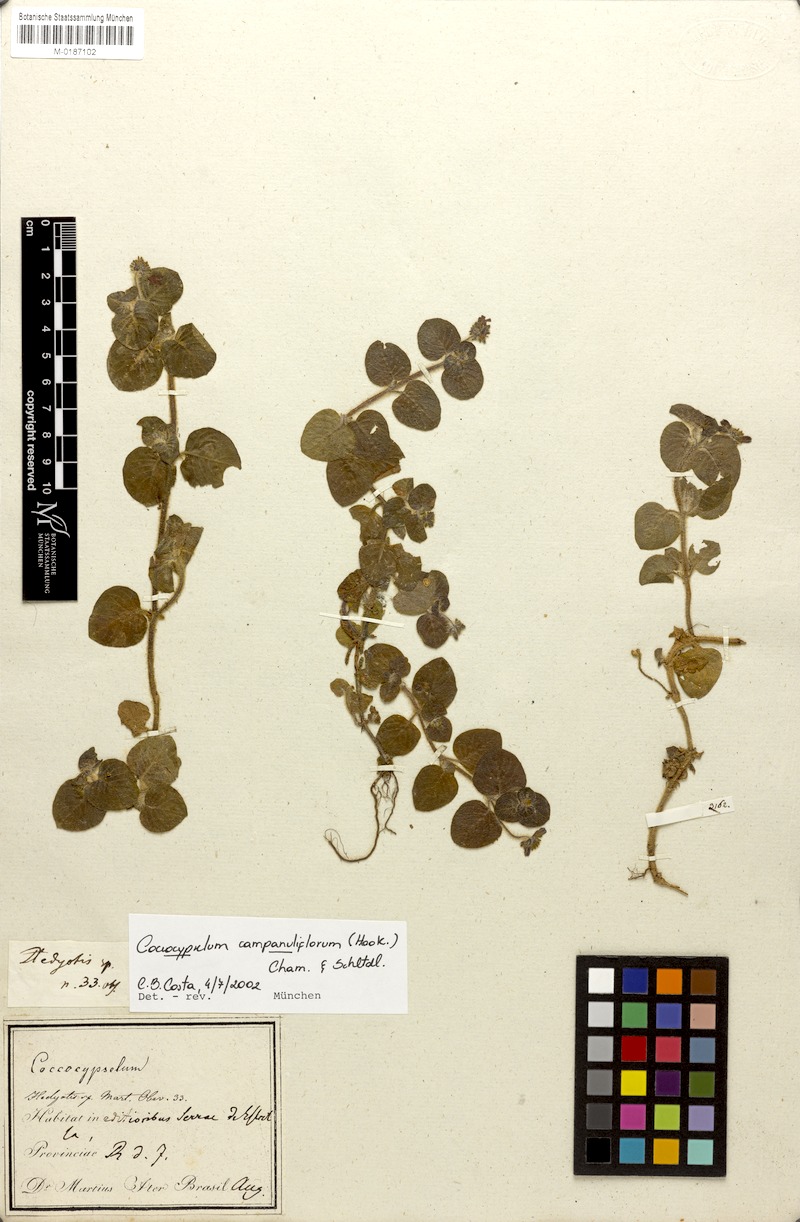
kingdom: Plantae
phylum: Tracheophyta
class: Magnoliopsida
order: Gentianales
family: Rubiaceae
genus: Coccocypselum
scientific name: Coccocypselum capitatum
